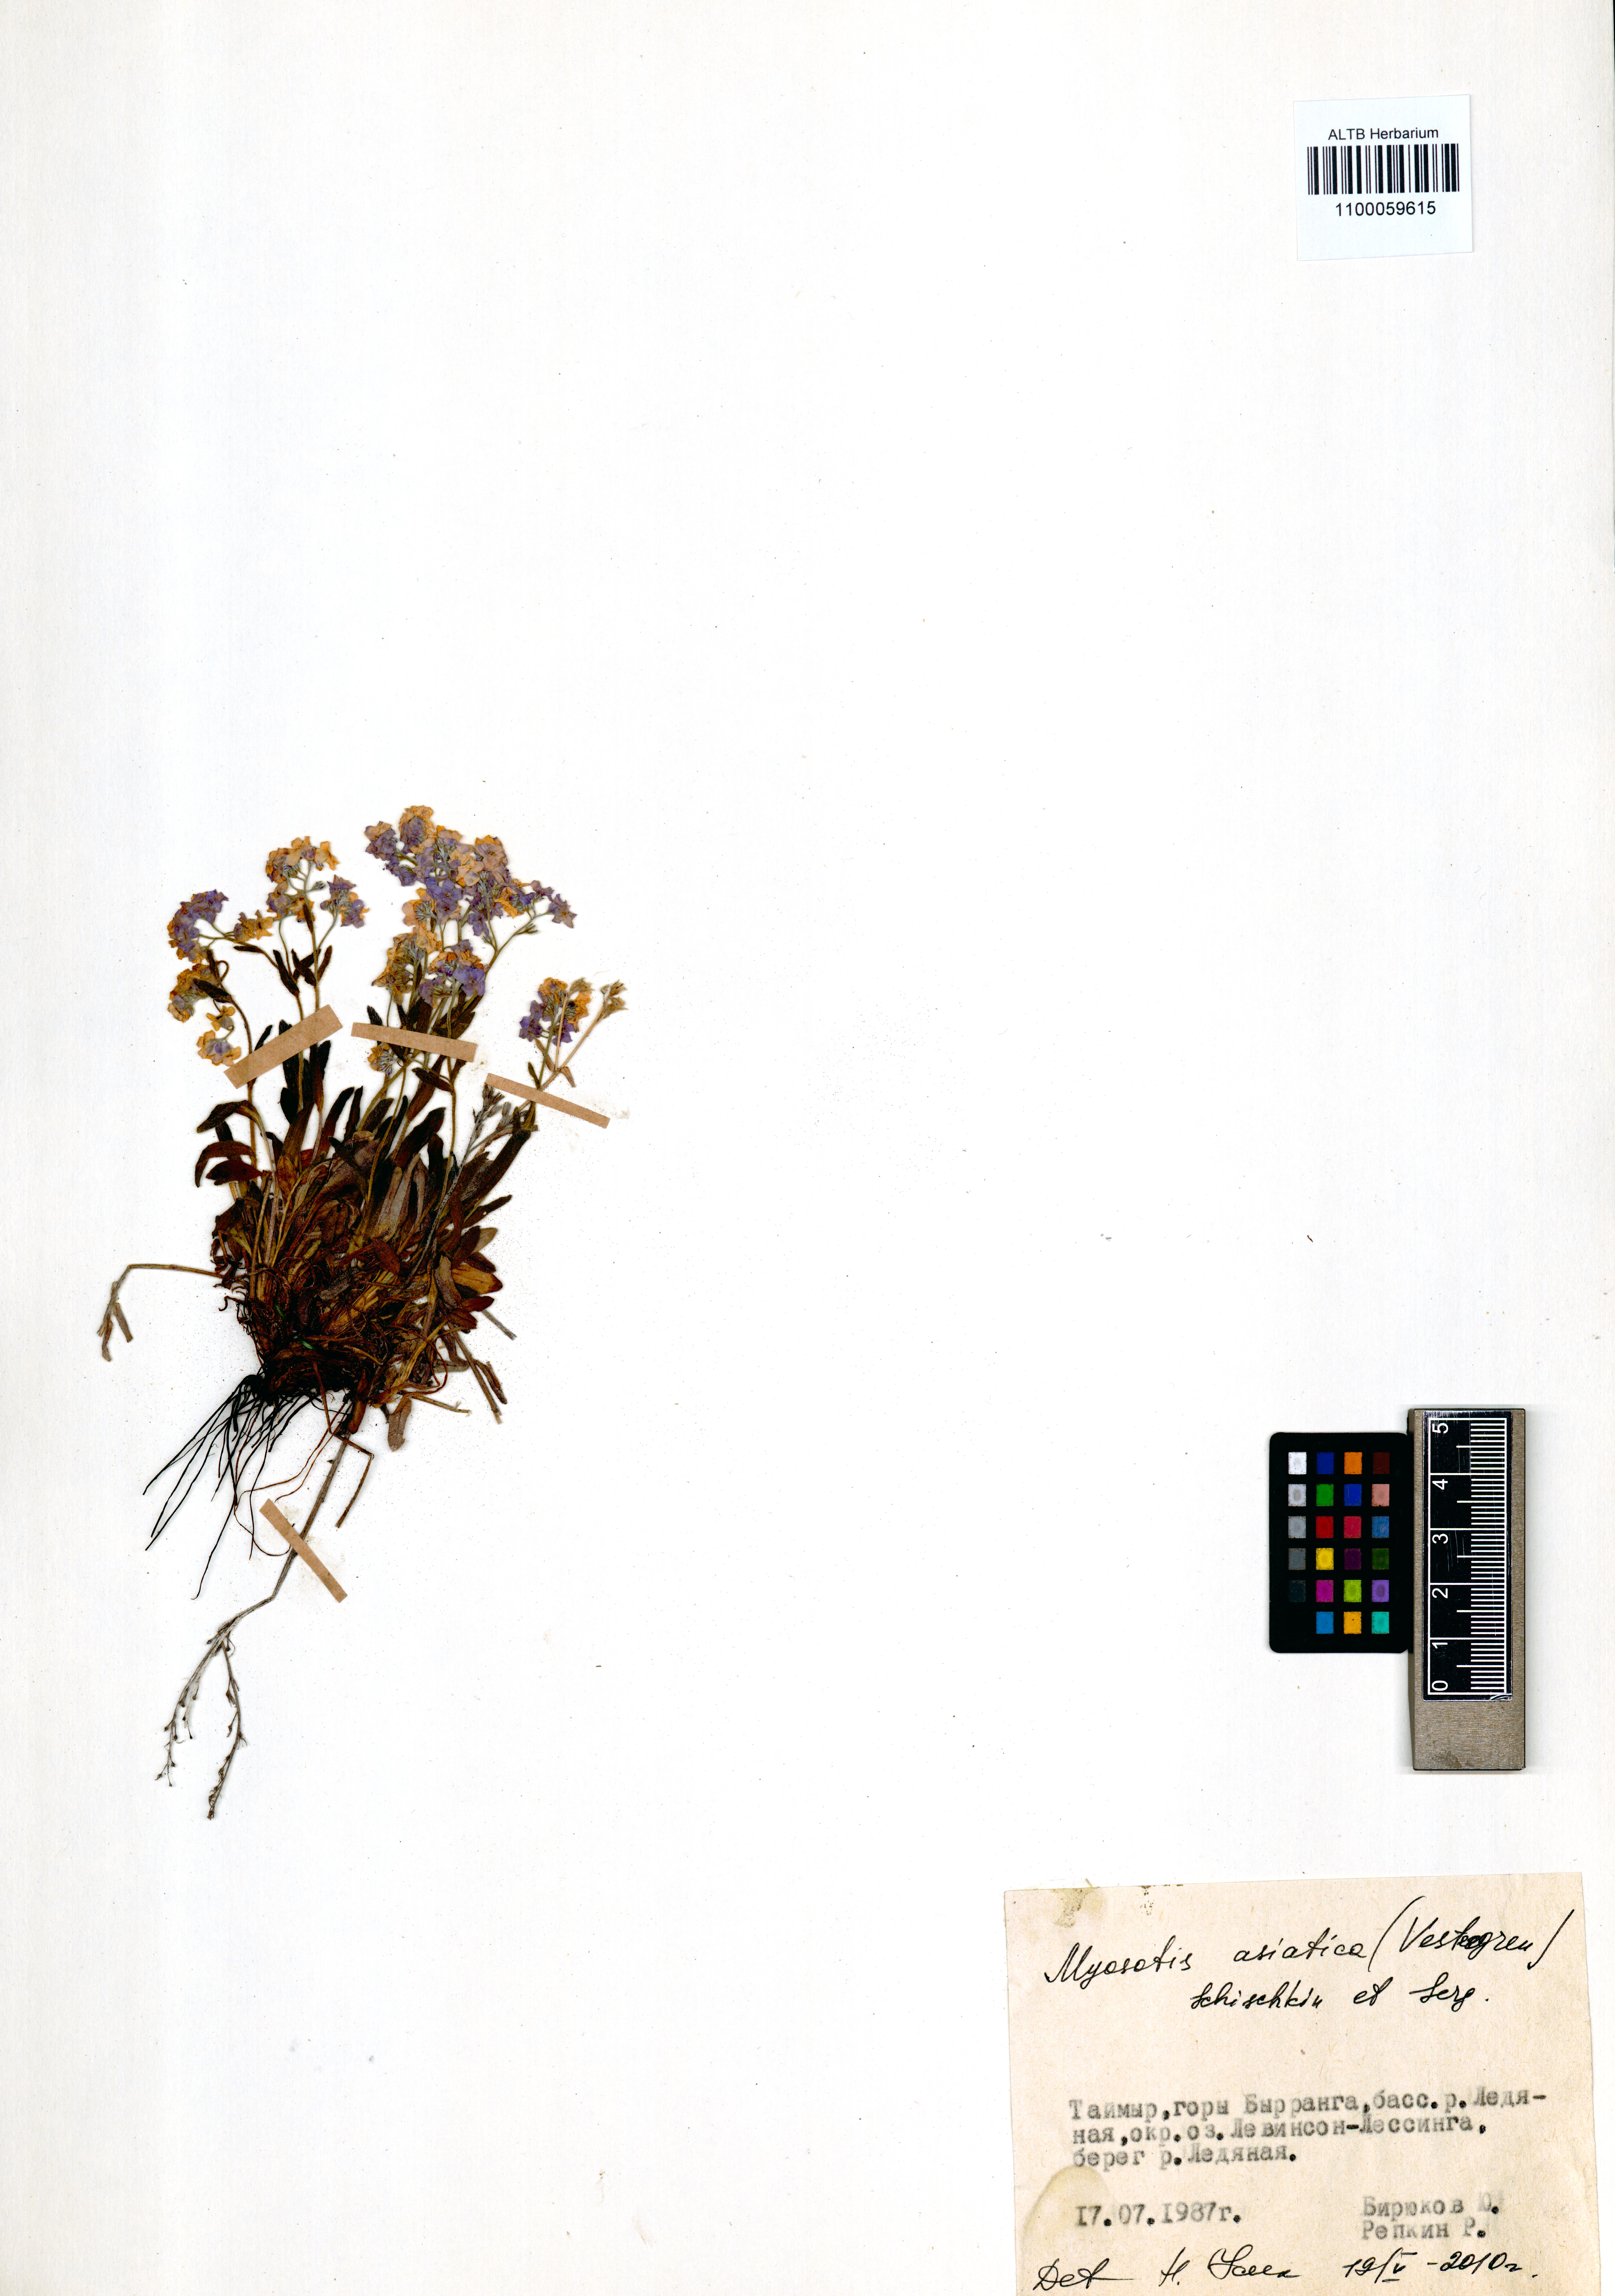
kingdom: Plantae
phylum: Tracheophyta
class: Magnoliopsida
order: Boraginales
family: Boraginaceae
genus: Myosotis
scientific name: Myosotis asiatica
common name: Asian forget-me-not
